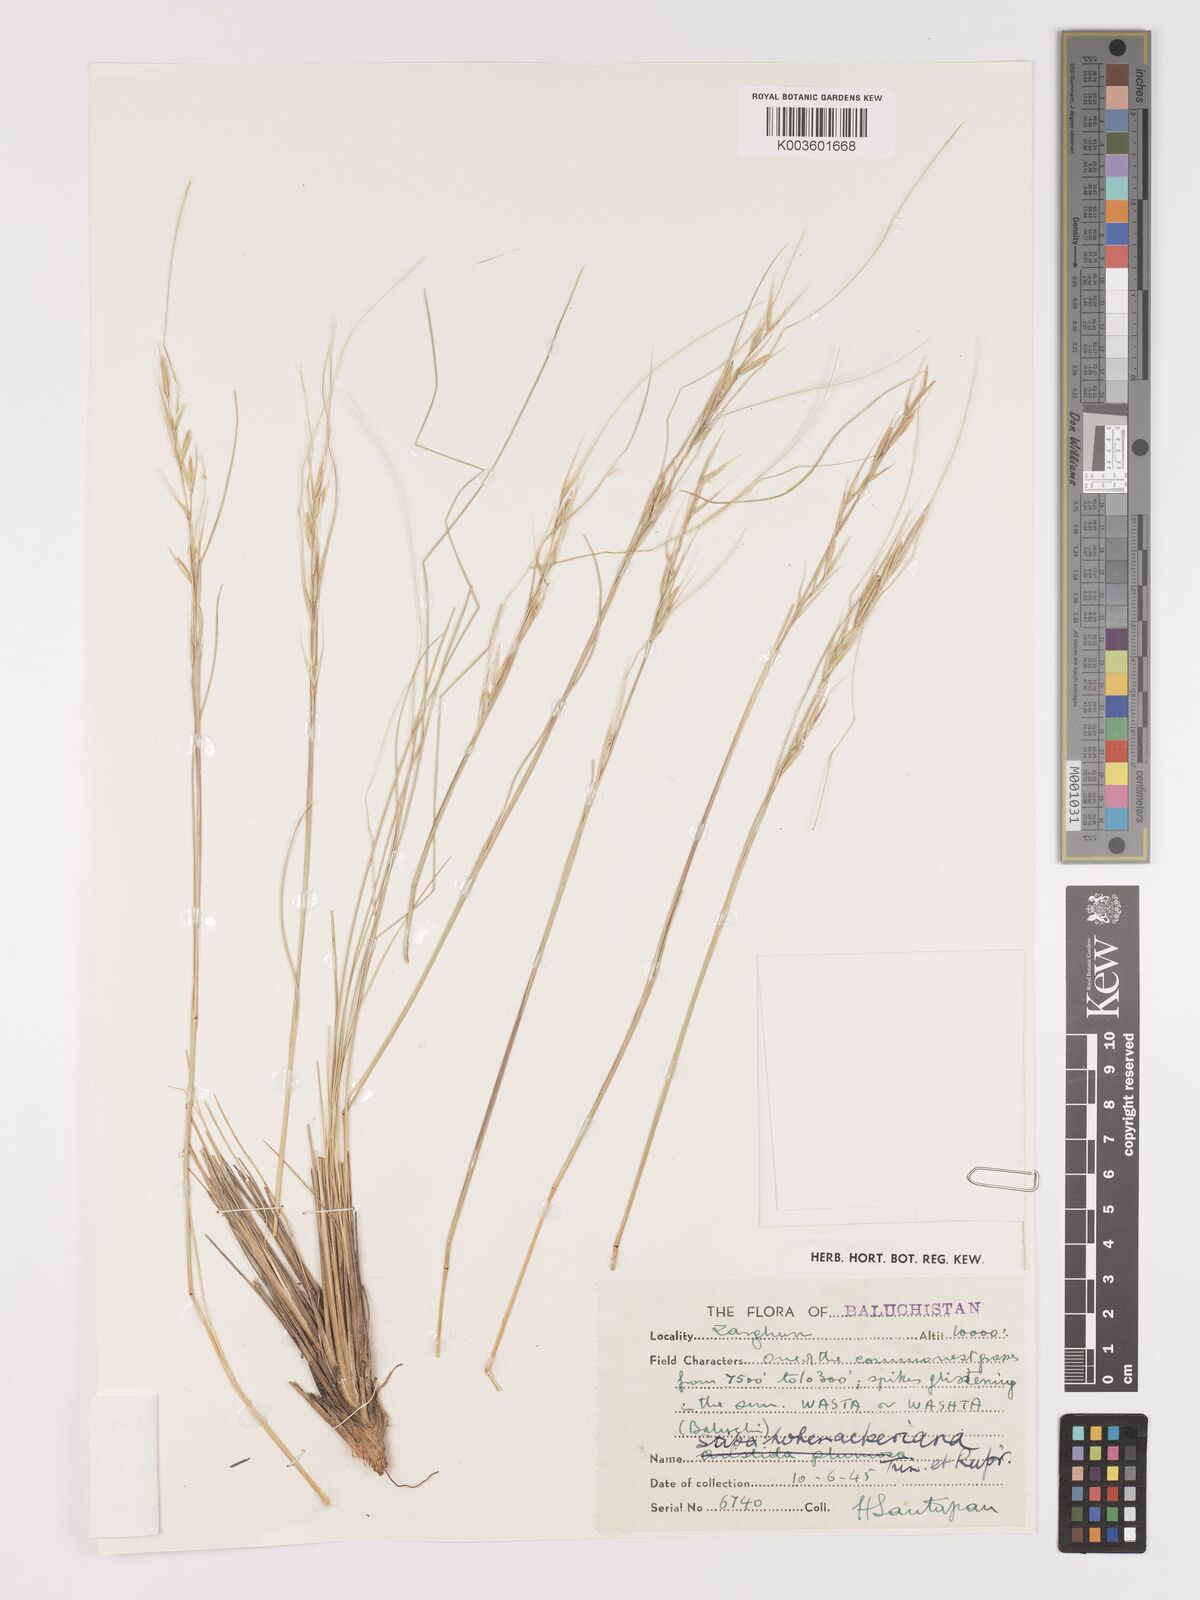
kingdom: Plantae
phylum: Tracheophyta
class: Liliopsida
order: Poales
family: Poaceae
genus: Stipa
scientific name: Stipa turkestanica
